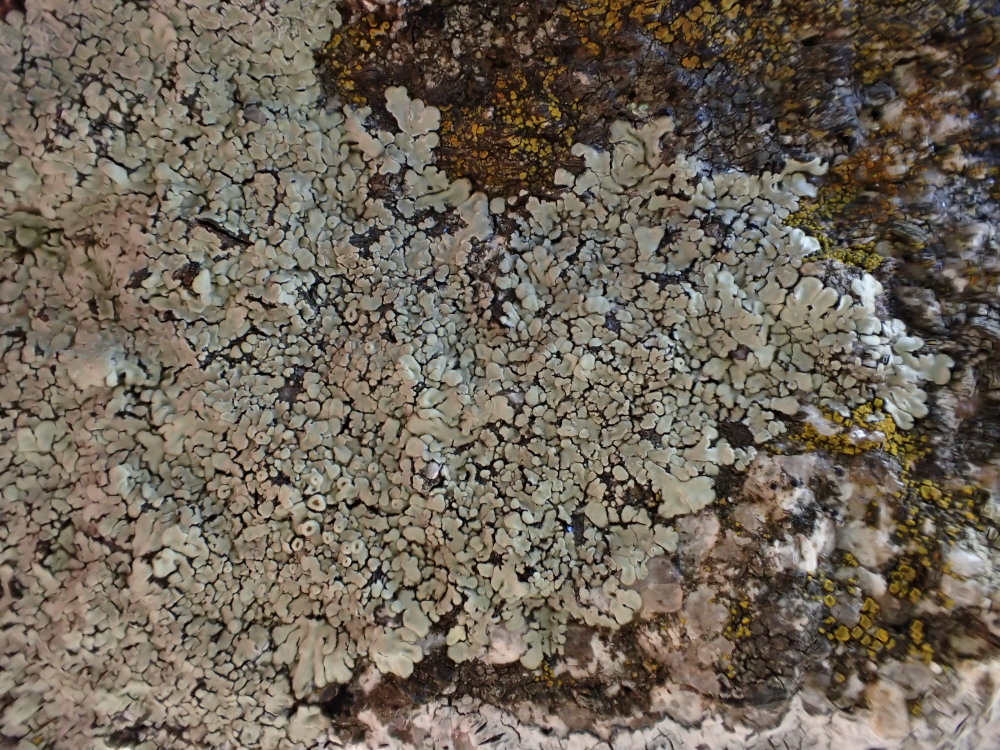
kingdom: Fungi
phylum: Ascomycota
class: Lecanoromycetes
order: Lecanorales
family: Lecanoraceae
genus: Protoparmeliopsis
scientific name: Protoparmeliopsis muralis
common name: randfliget kantskivelav
